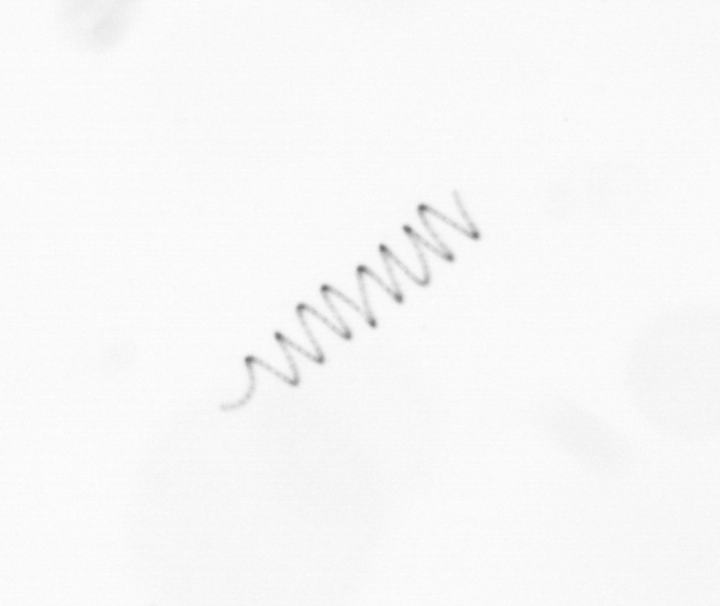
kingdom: Chromista
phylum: Ochrophyta
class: Bacillariophyceae
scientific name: Bacillariophyceae
